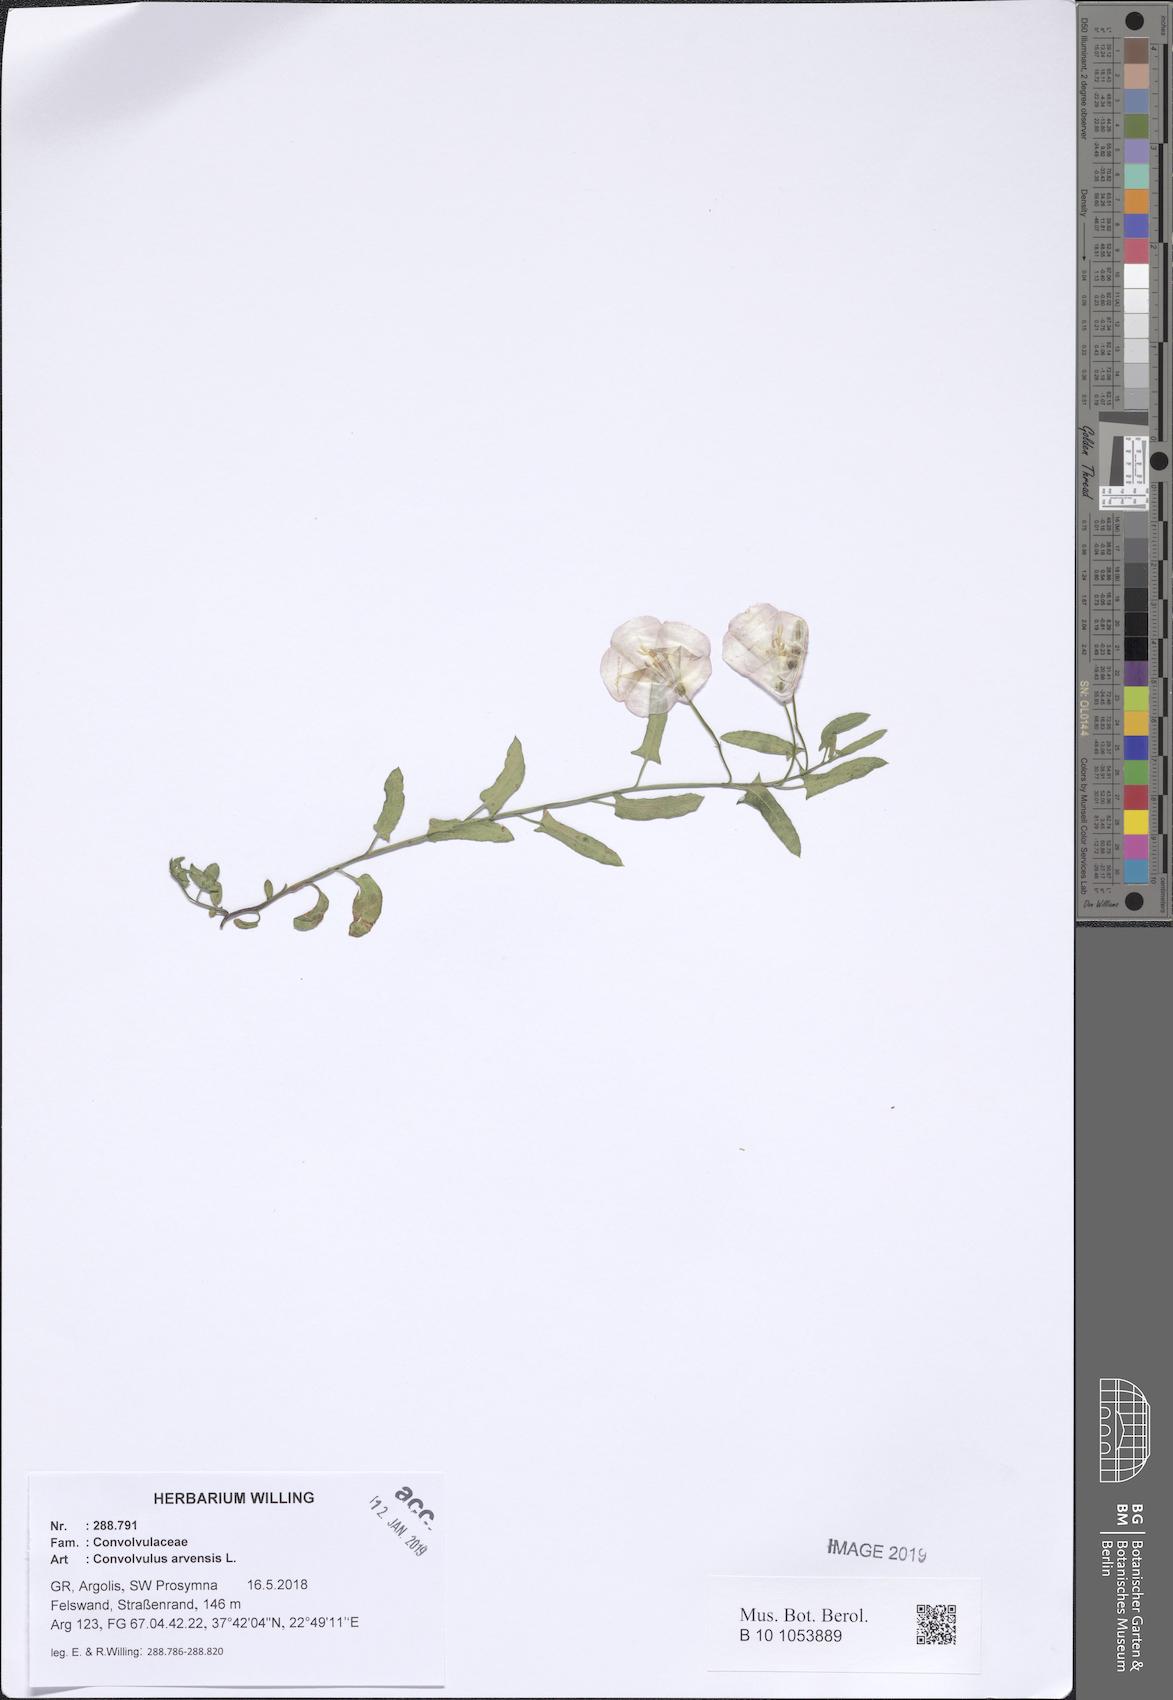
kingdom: Plantae
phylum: Tracheophyta
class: Magnoliopsida
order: Solanales
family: Convolvulaceae
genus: Convolvulus
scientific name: Convolvulus arvensis
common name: Field bindweed
